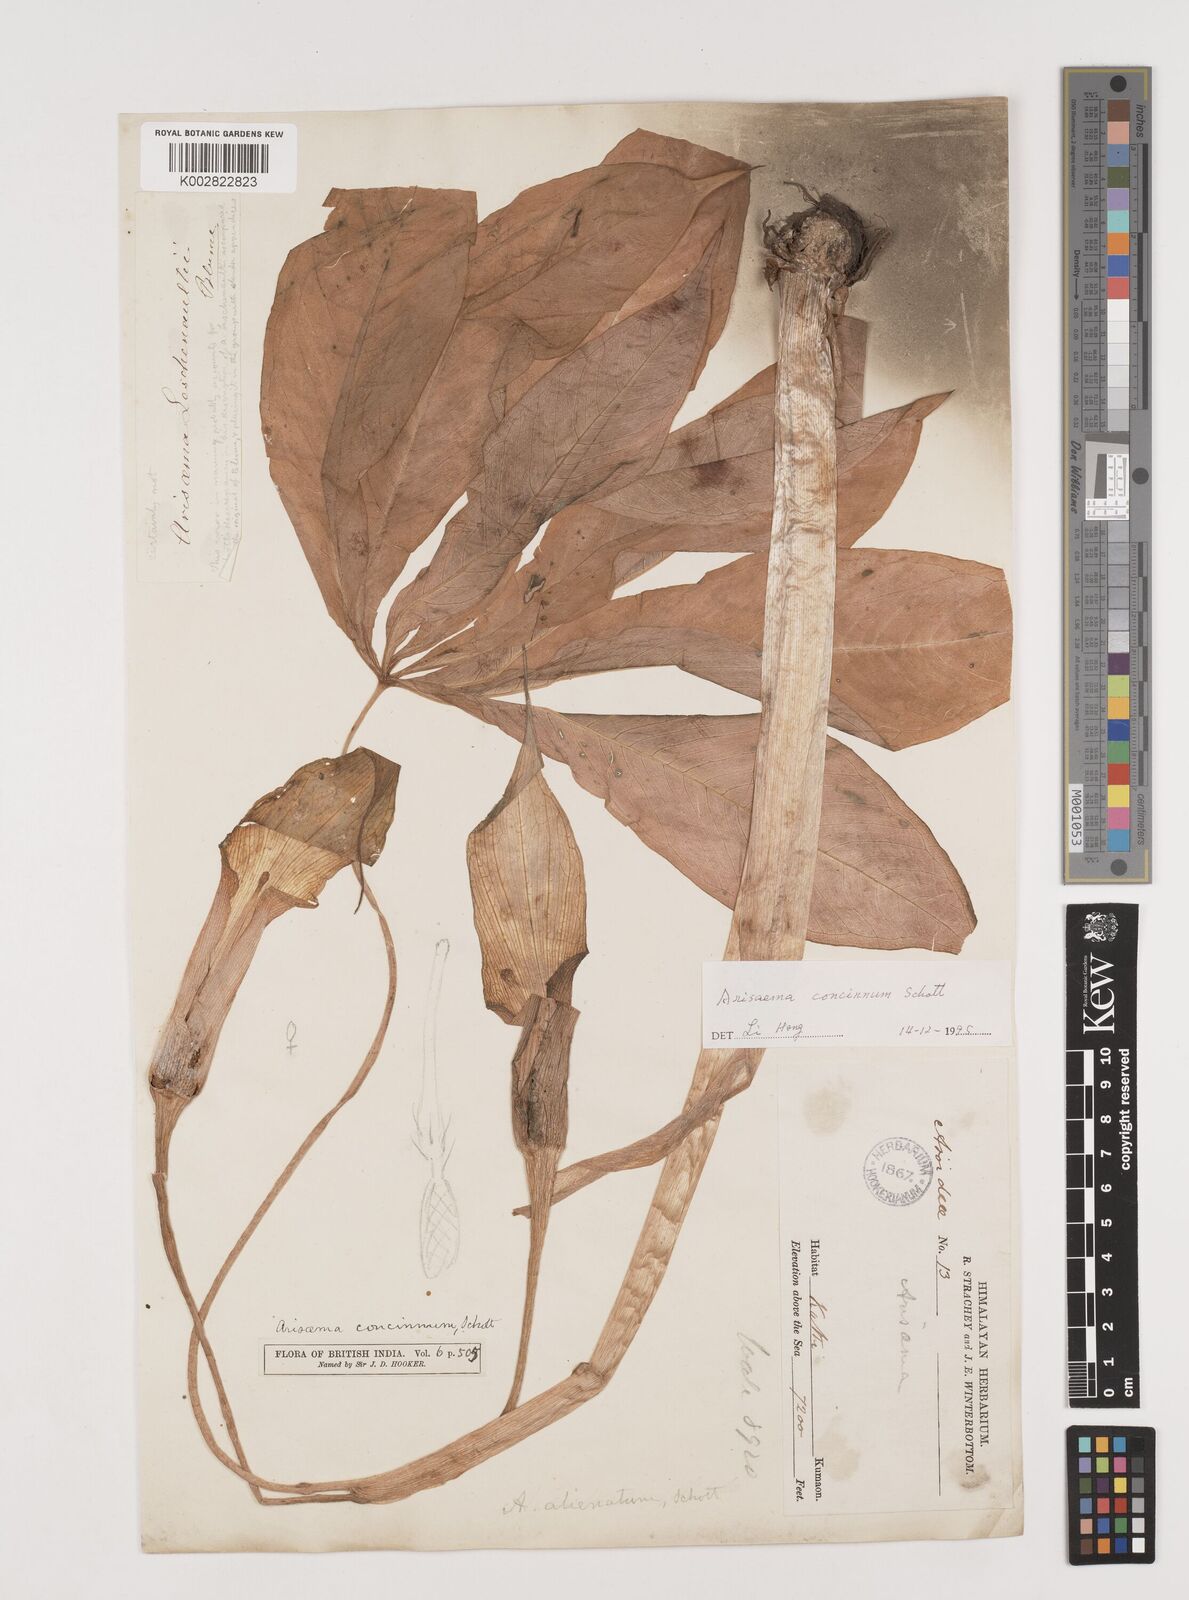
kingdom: Plantae
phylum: Tracheophyta
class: Liliopsida
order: Alismatales
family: Araceae
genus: Arisaema
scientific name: Arisaema concinnum
